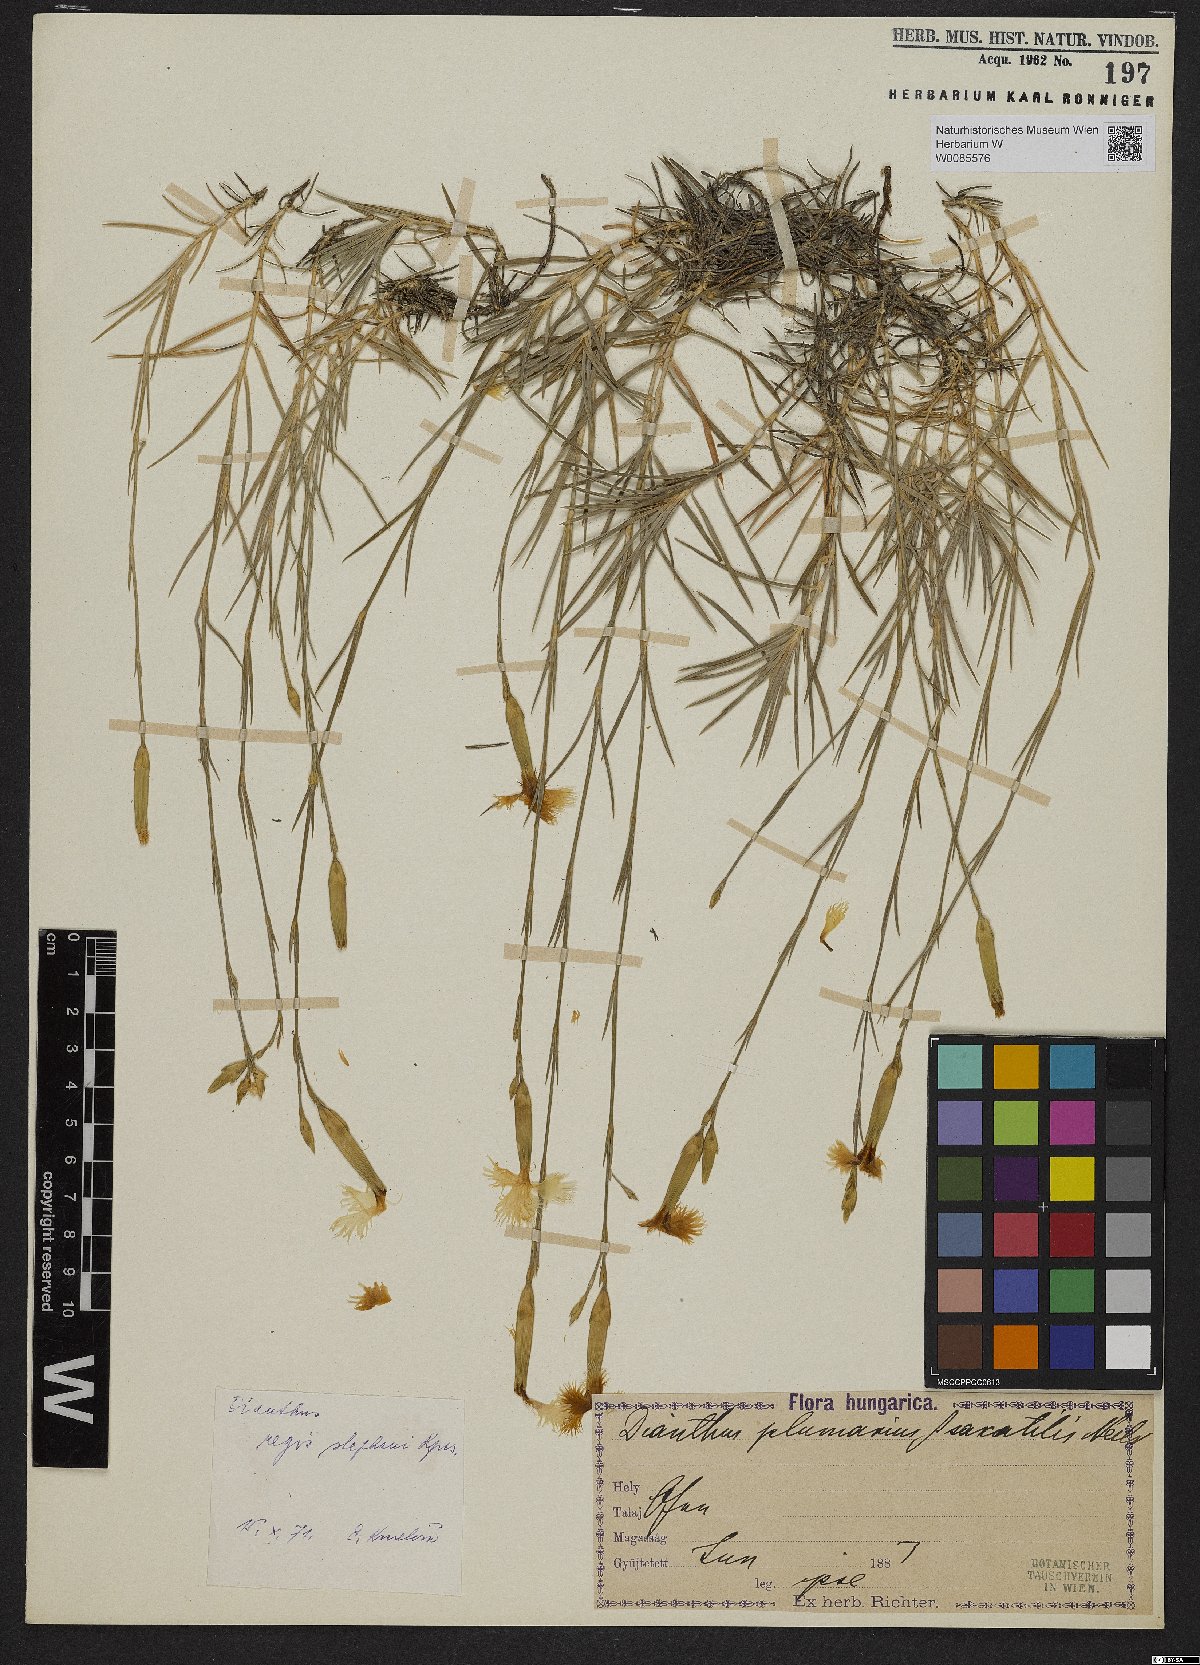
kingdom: Plantae
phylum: Tracheophyta
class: Magnoliopsida
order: Caryophyllales
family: Caryophyllaceae
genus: Dianthus
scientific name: Dianthus plumarius
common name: Pink
